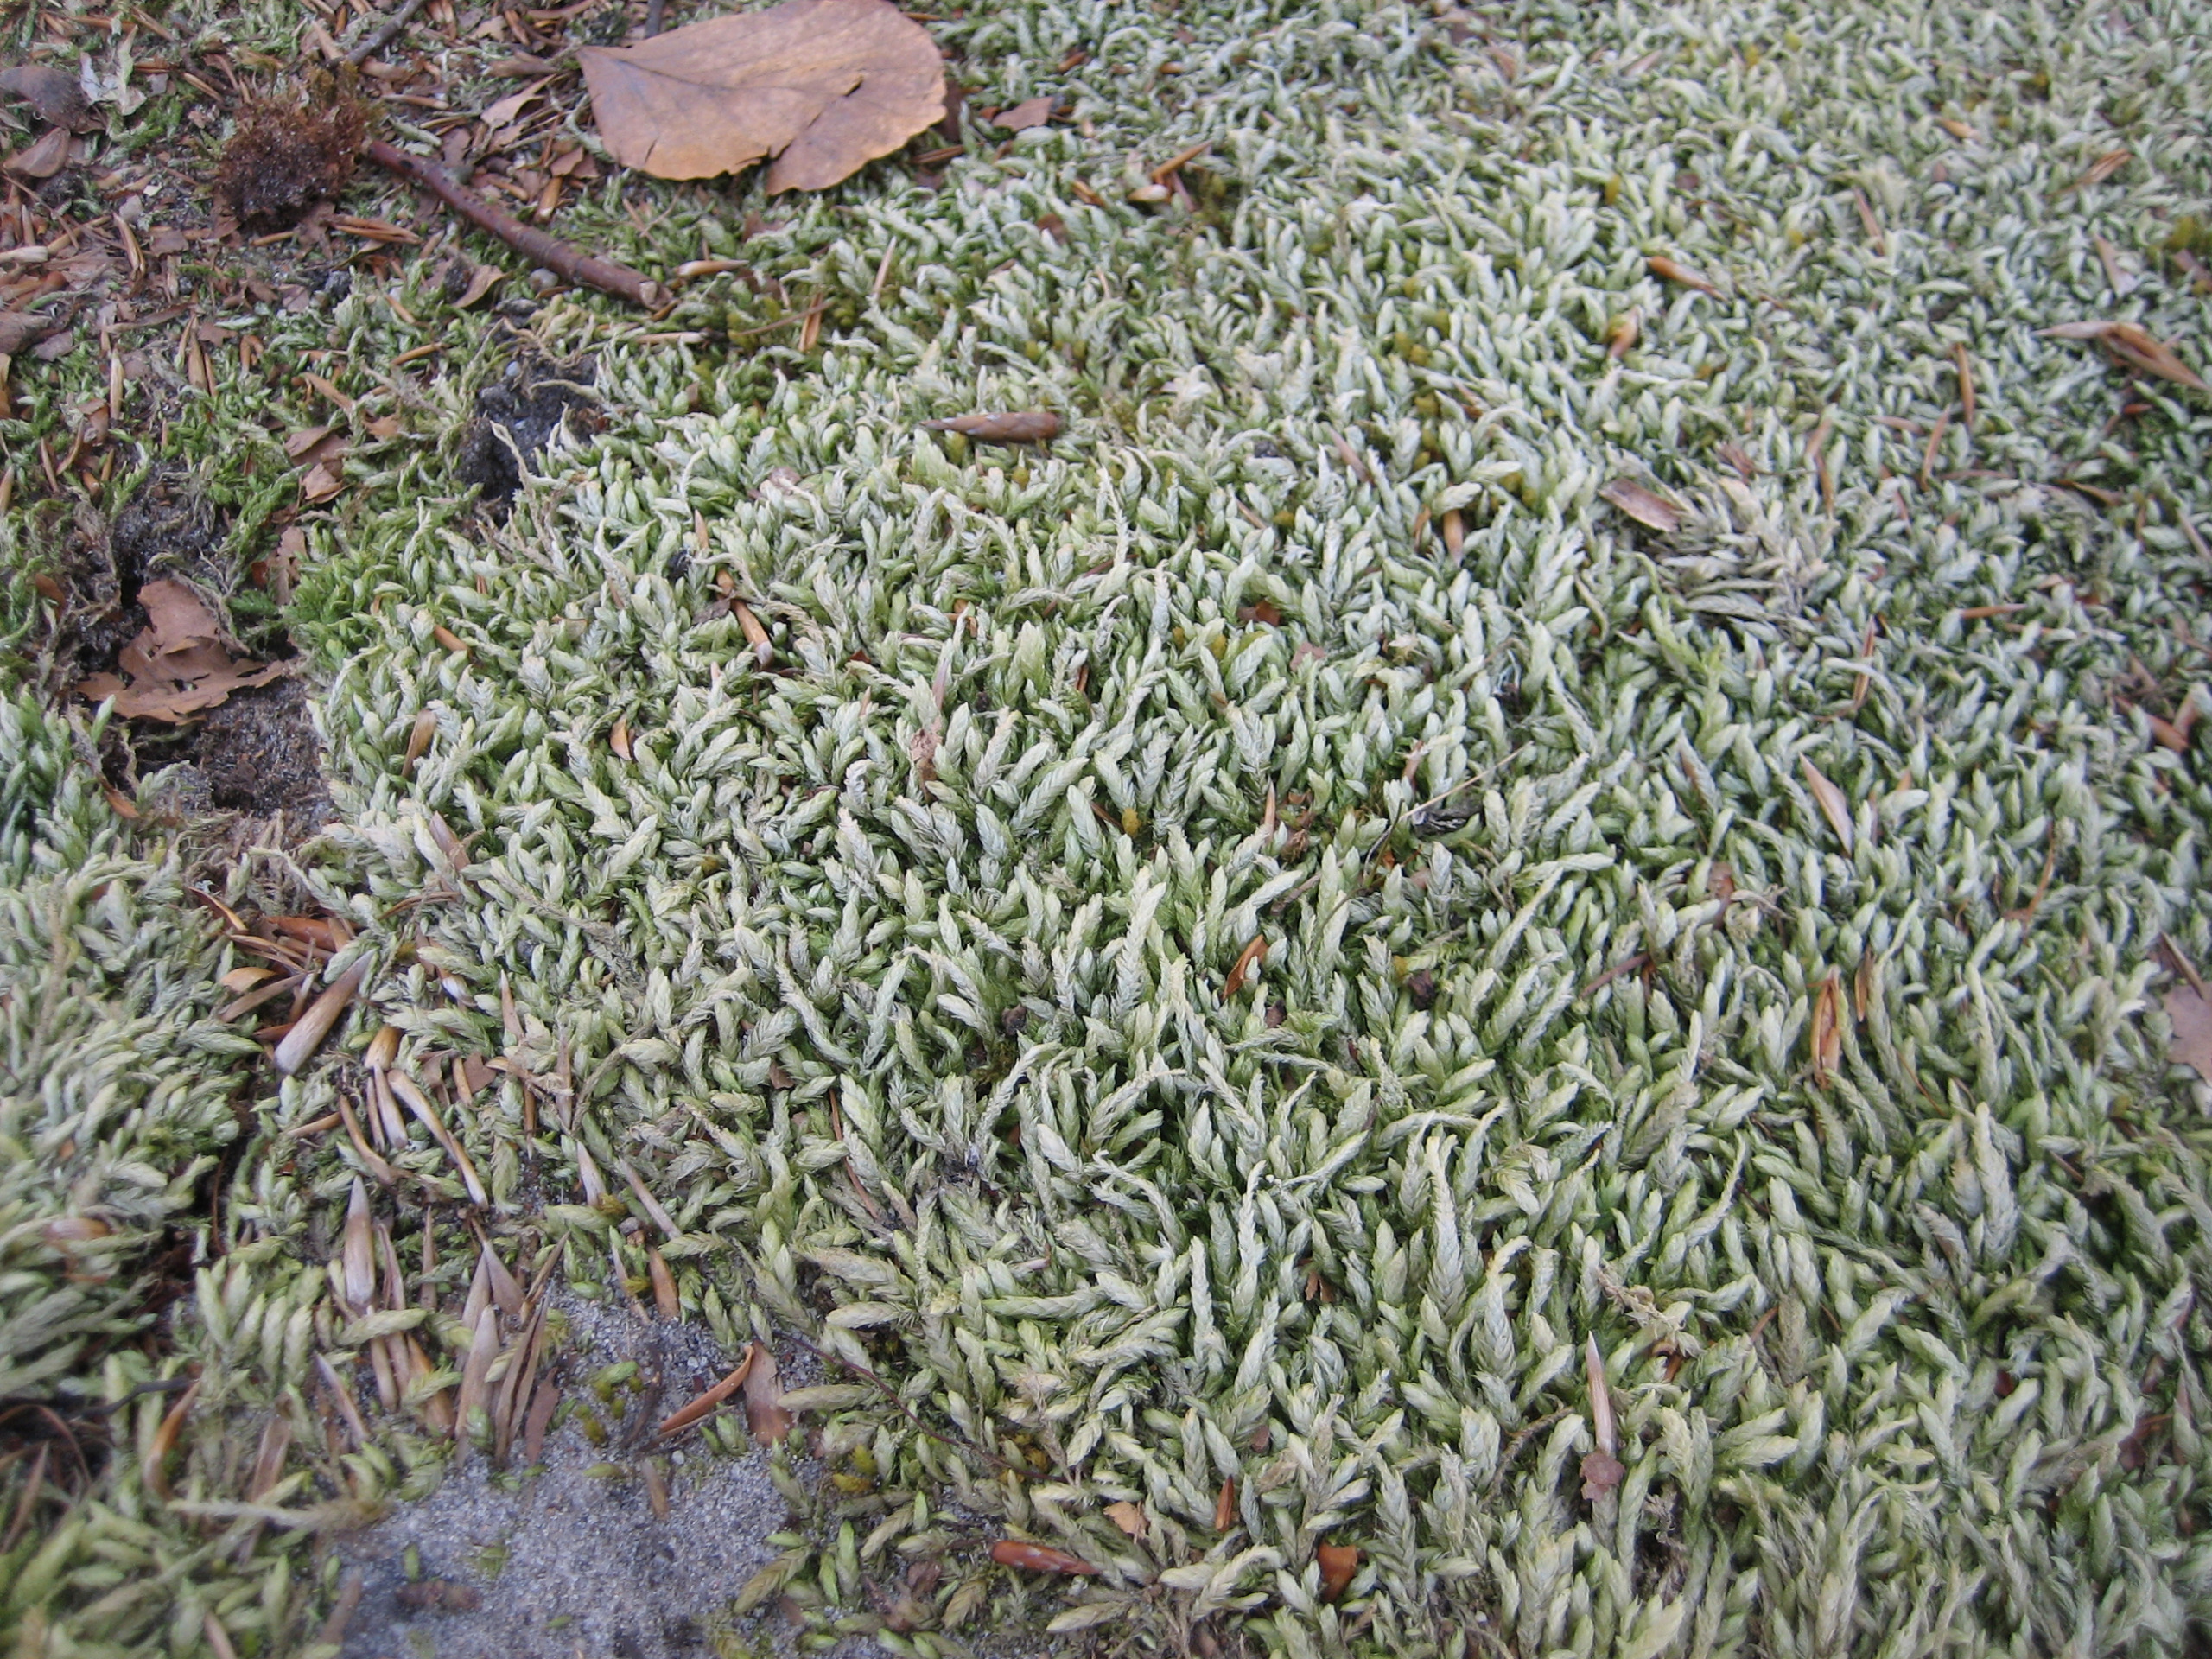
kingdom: Plantae
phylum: Bryophyta
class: Bryopsida
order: Hypnales
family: Plagiotheciaceae
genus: Plagiothecium
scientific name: Plagiothecium undulatum
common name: Bølget tæppemos
